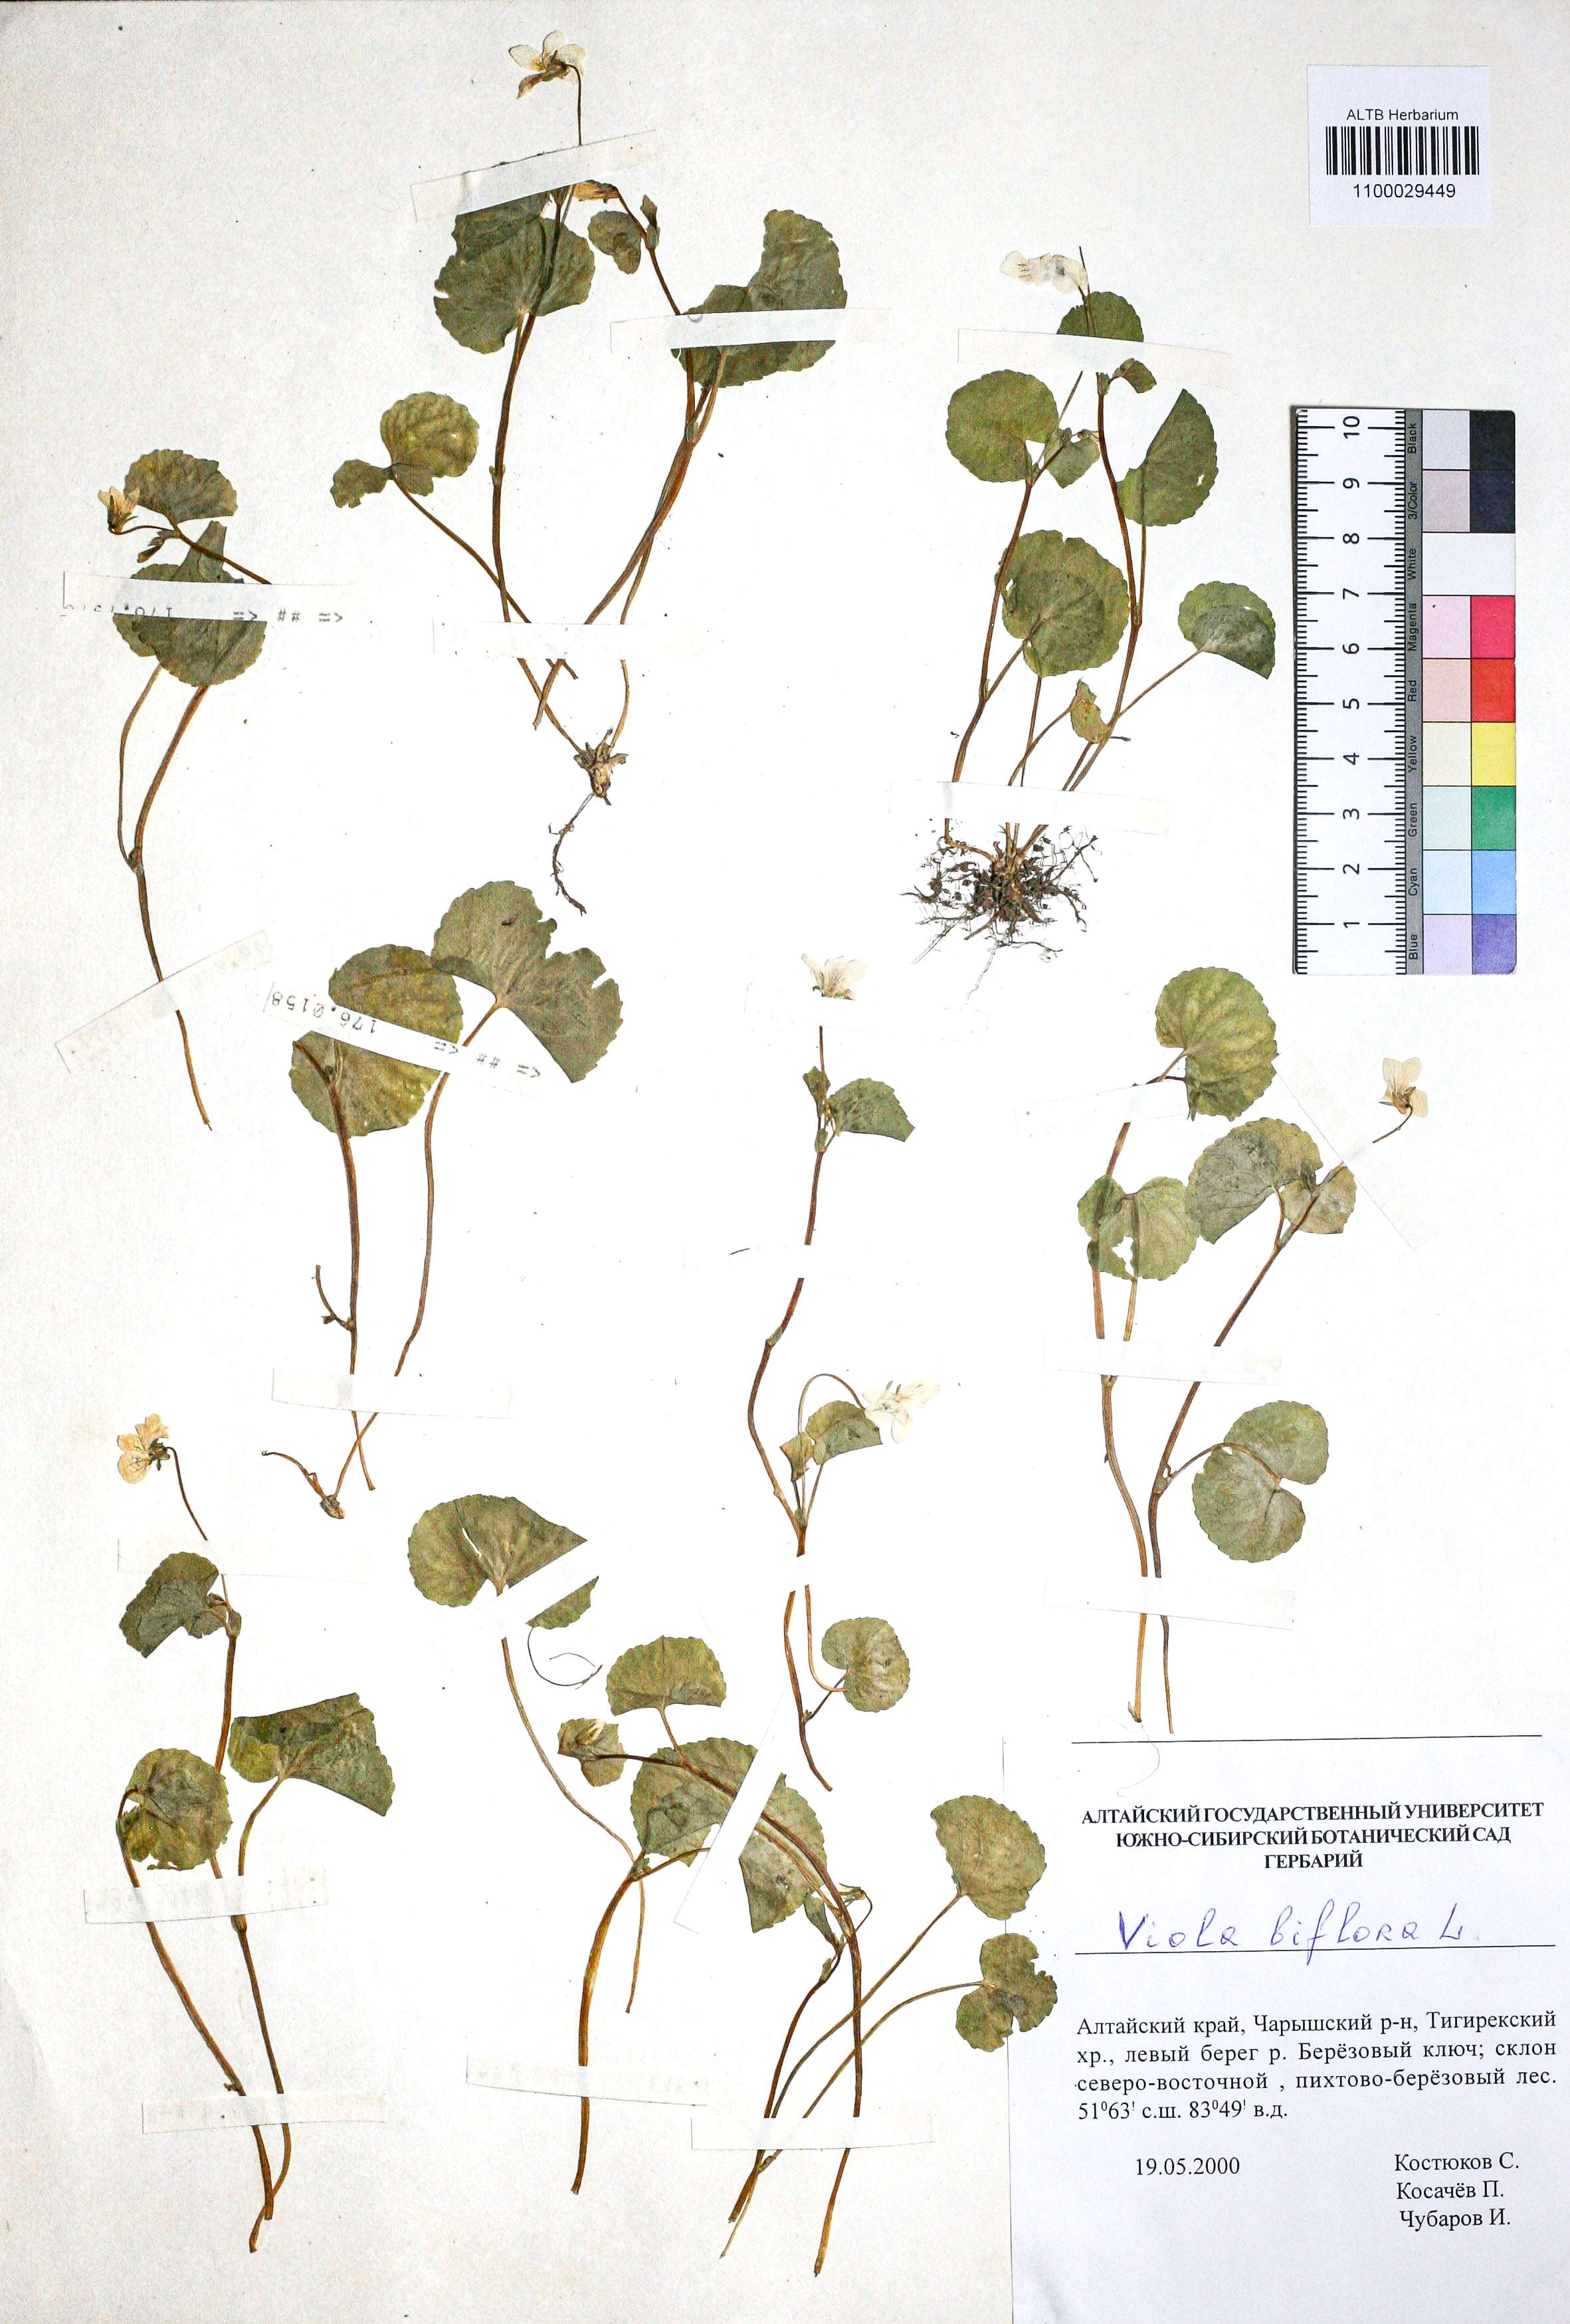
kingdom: Plantae
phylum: Tracheophyta
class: Magnoliopsida
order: Malpighiales
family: Violaceae
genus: Viola
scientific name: Viola biflora
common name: Alpine yellow violet
